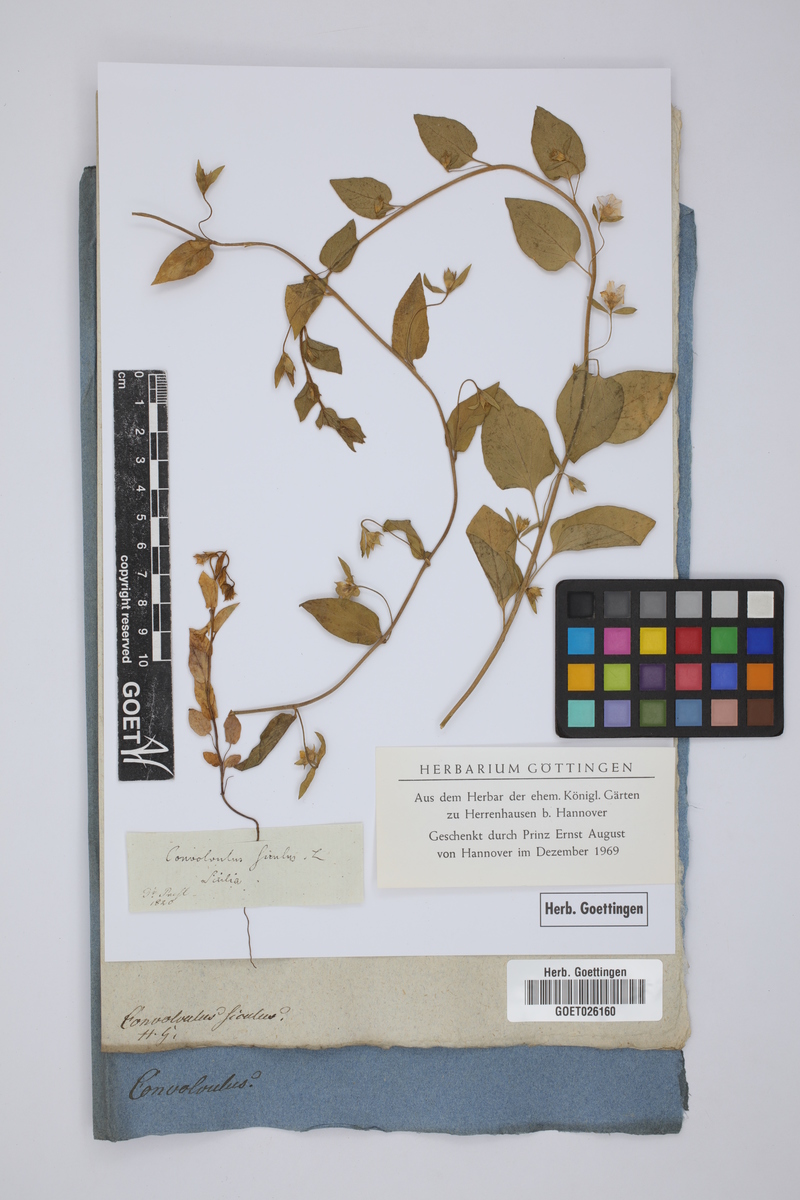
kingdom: Plantae
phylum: Tracheophyta
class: Magnoliopsida
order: Solanales
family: Convolvulaceae
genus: Convolvulus
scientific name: Convolvulus siculus
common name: Small blue-convolvulus
